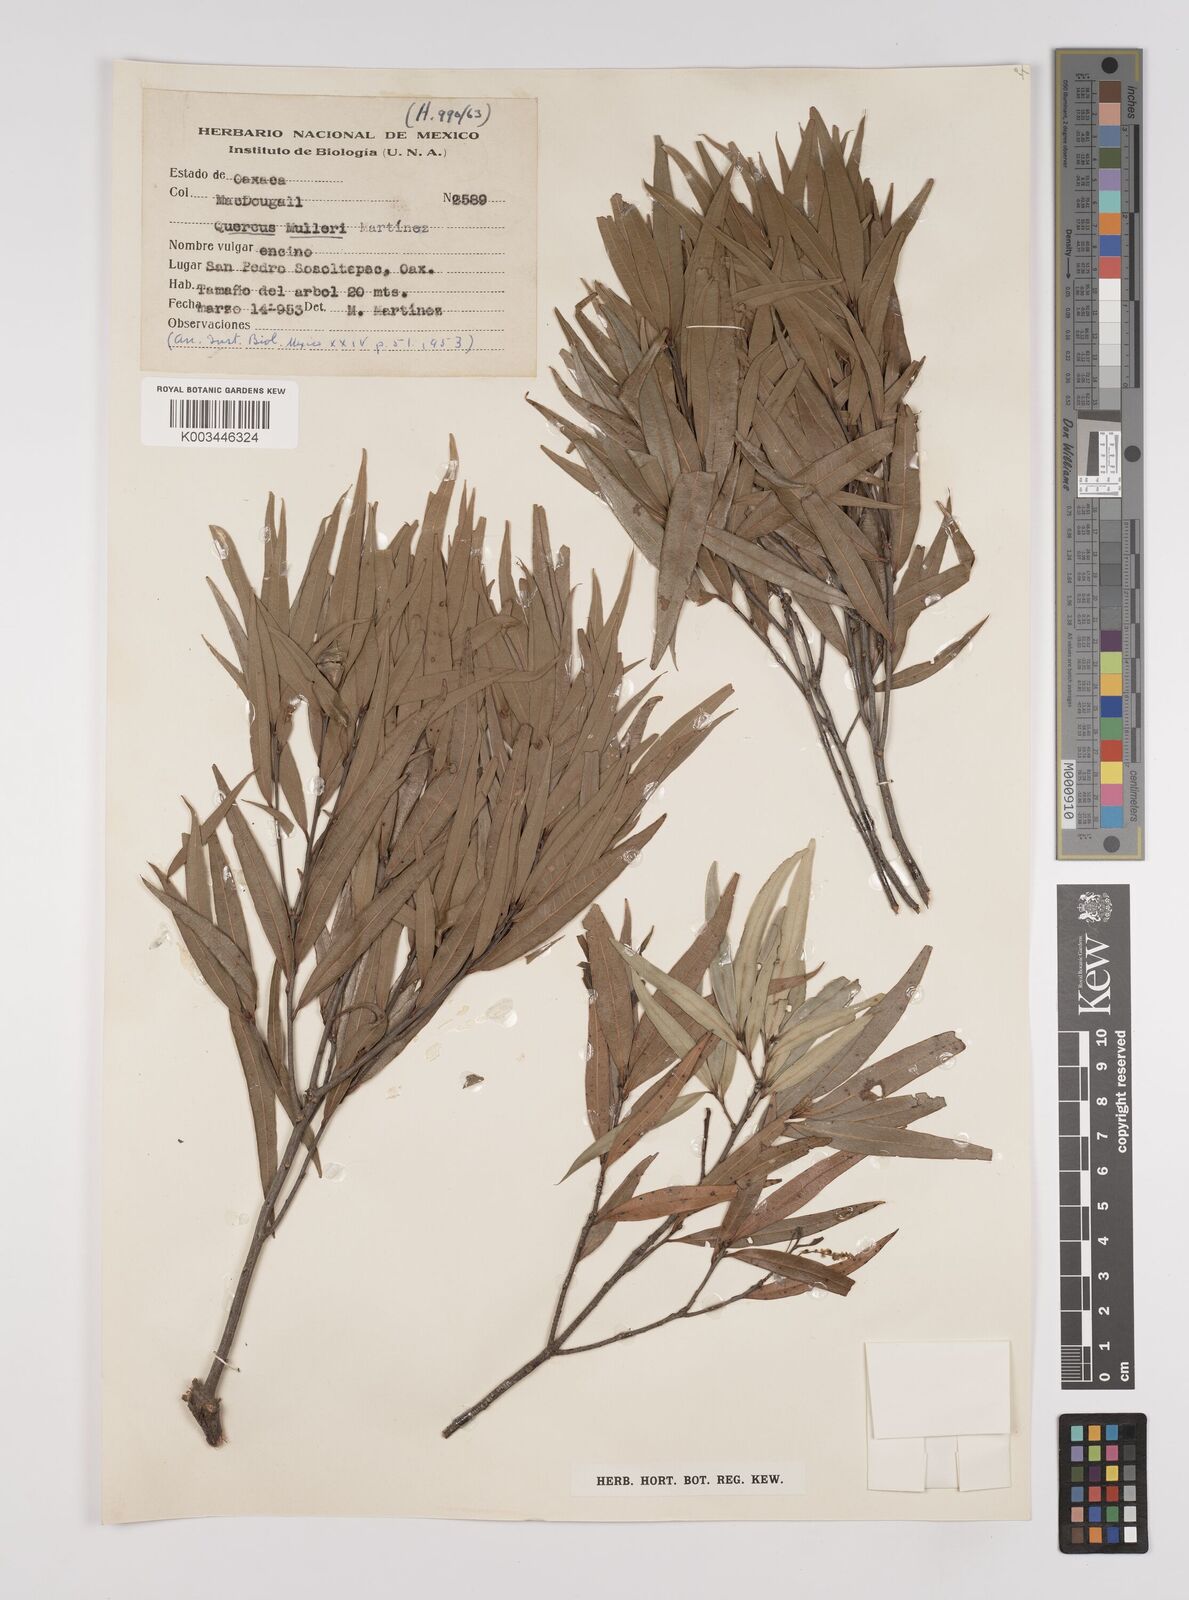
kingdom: Plantae
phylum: Tracheophyta
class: Magnoliopsida
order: Fagales
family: Fagaceae
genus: Quercus
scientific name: Quercus mulleri
